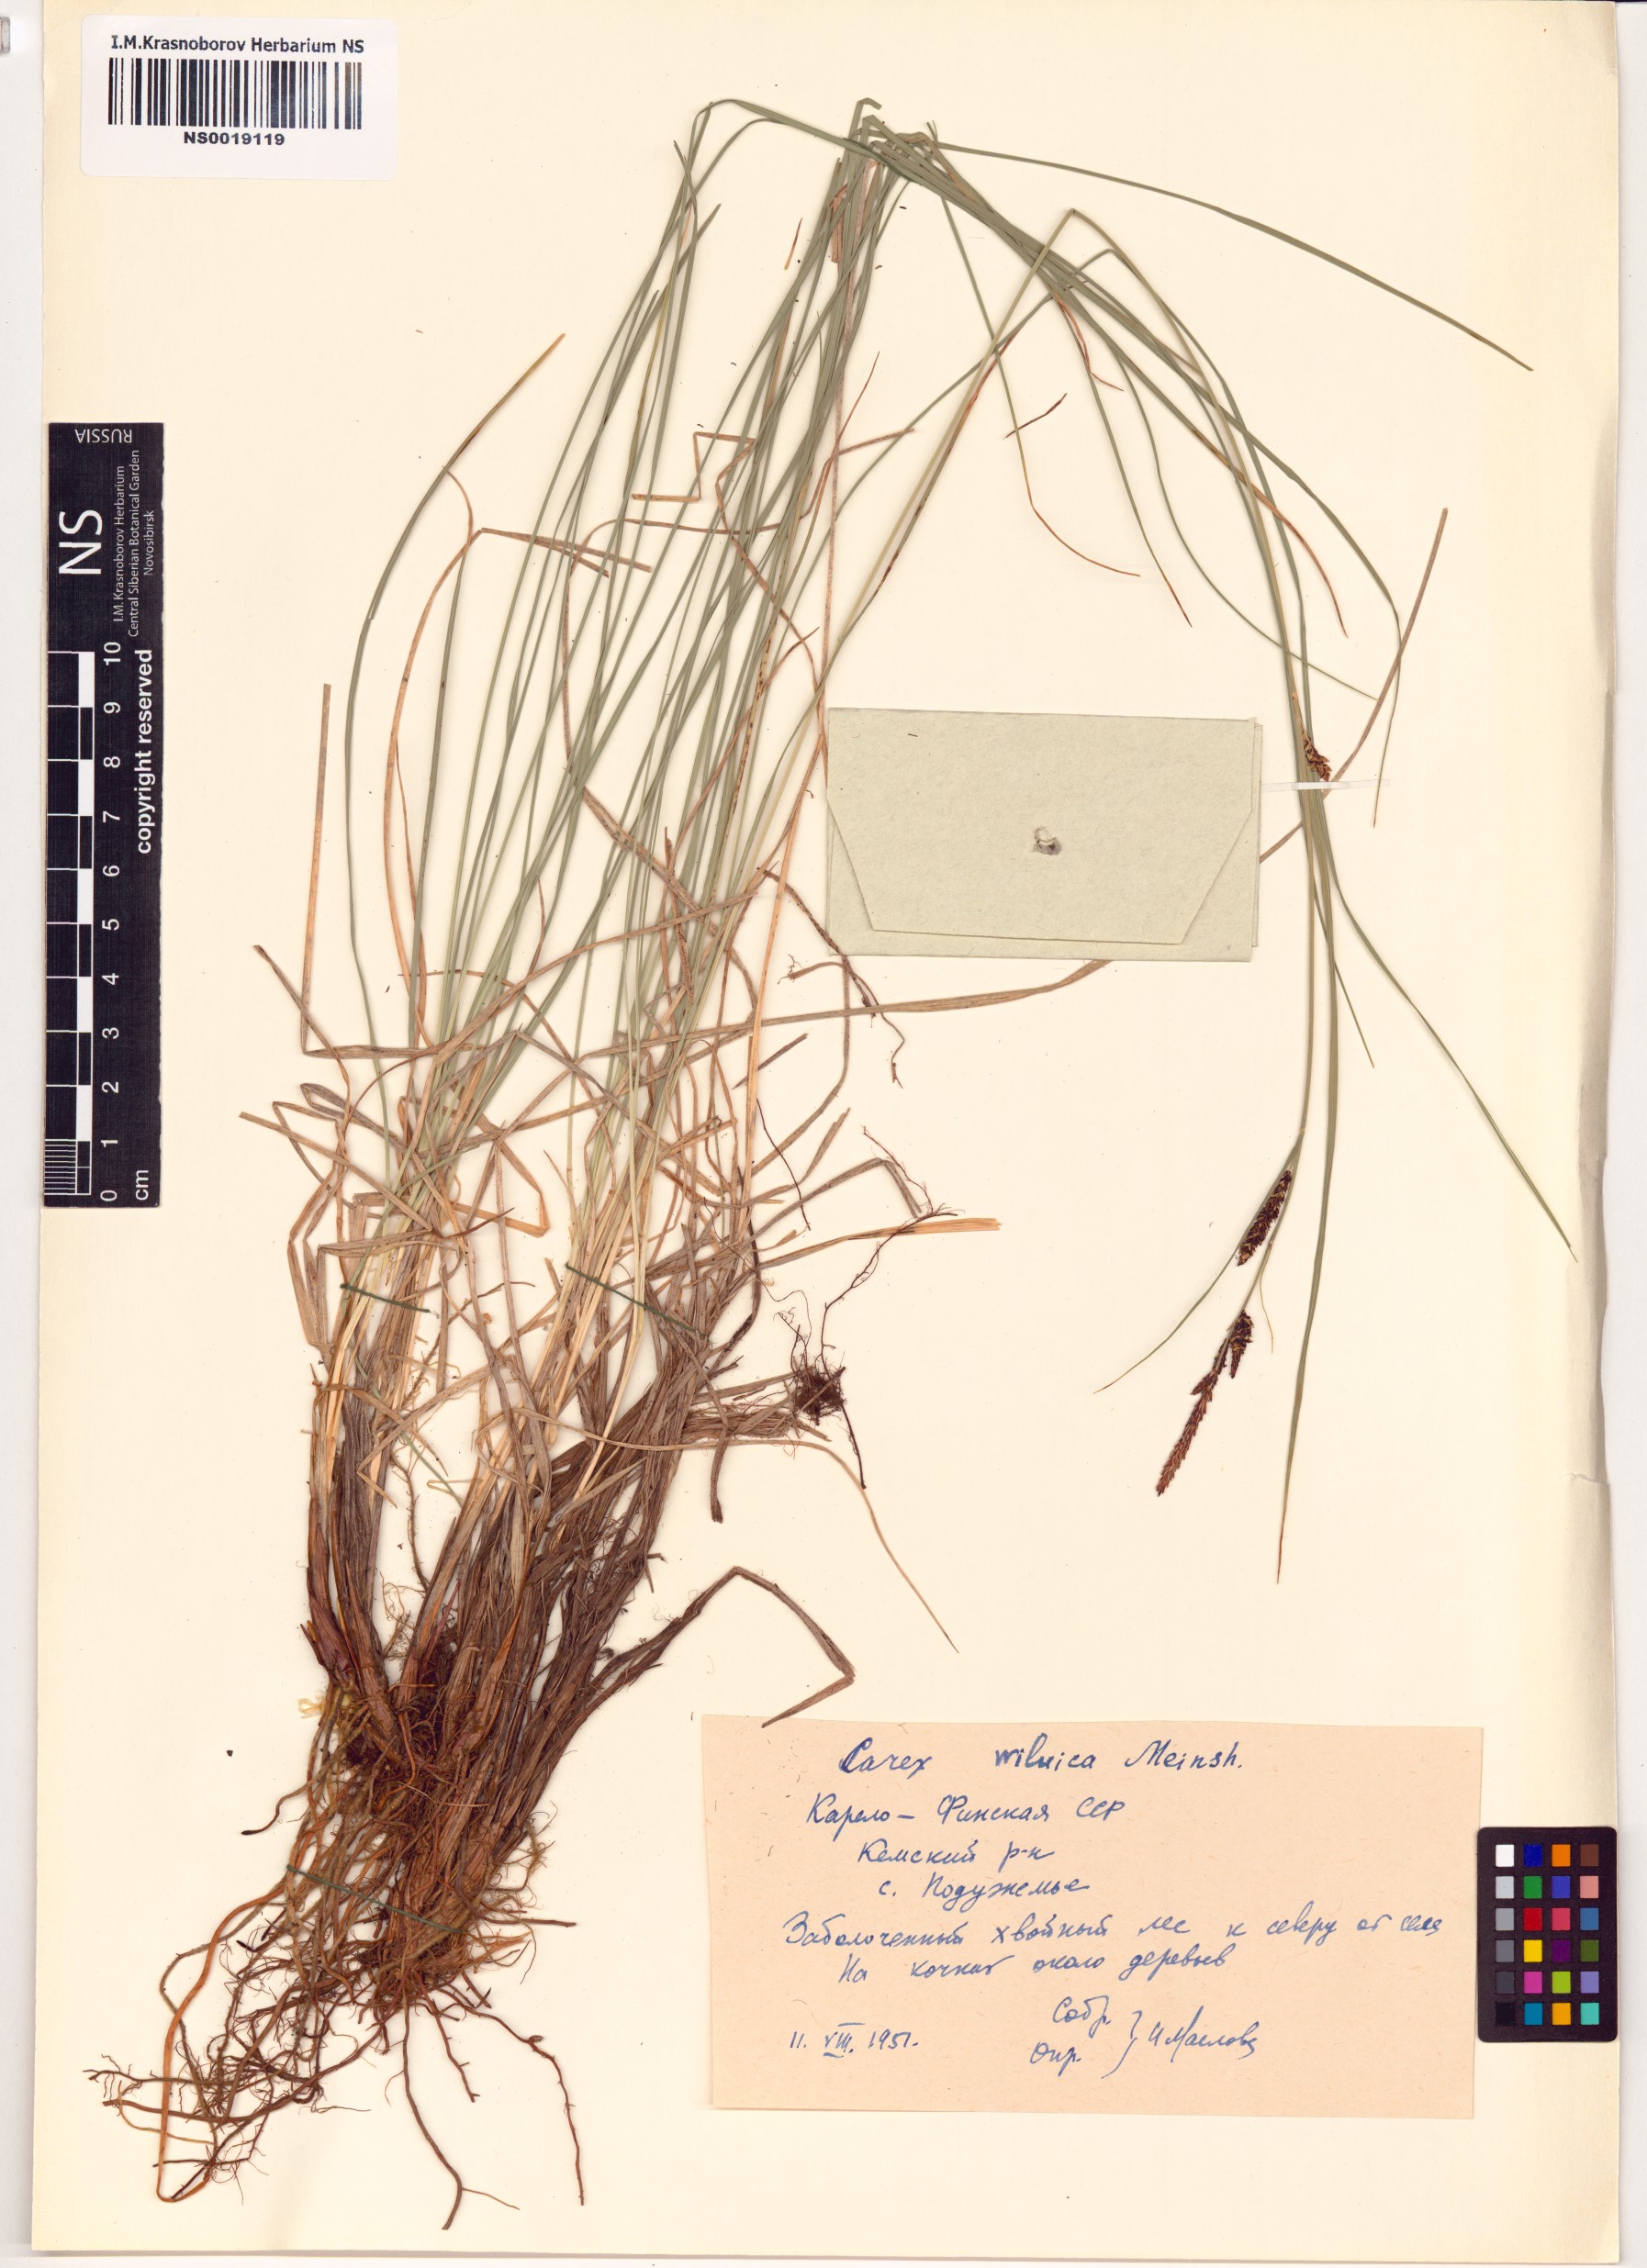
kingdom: Plantae
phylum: Tracheophyta
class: Liliopsida
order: Poales
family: Cyperaceae
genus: Carex
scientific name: Carex nigra
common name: Common sedge
